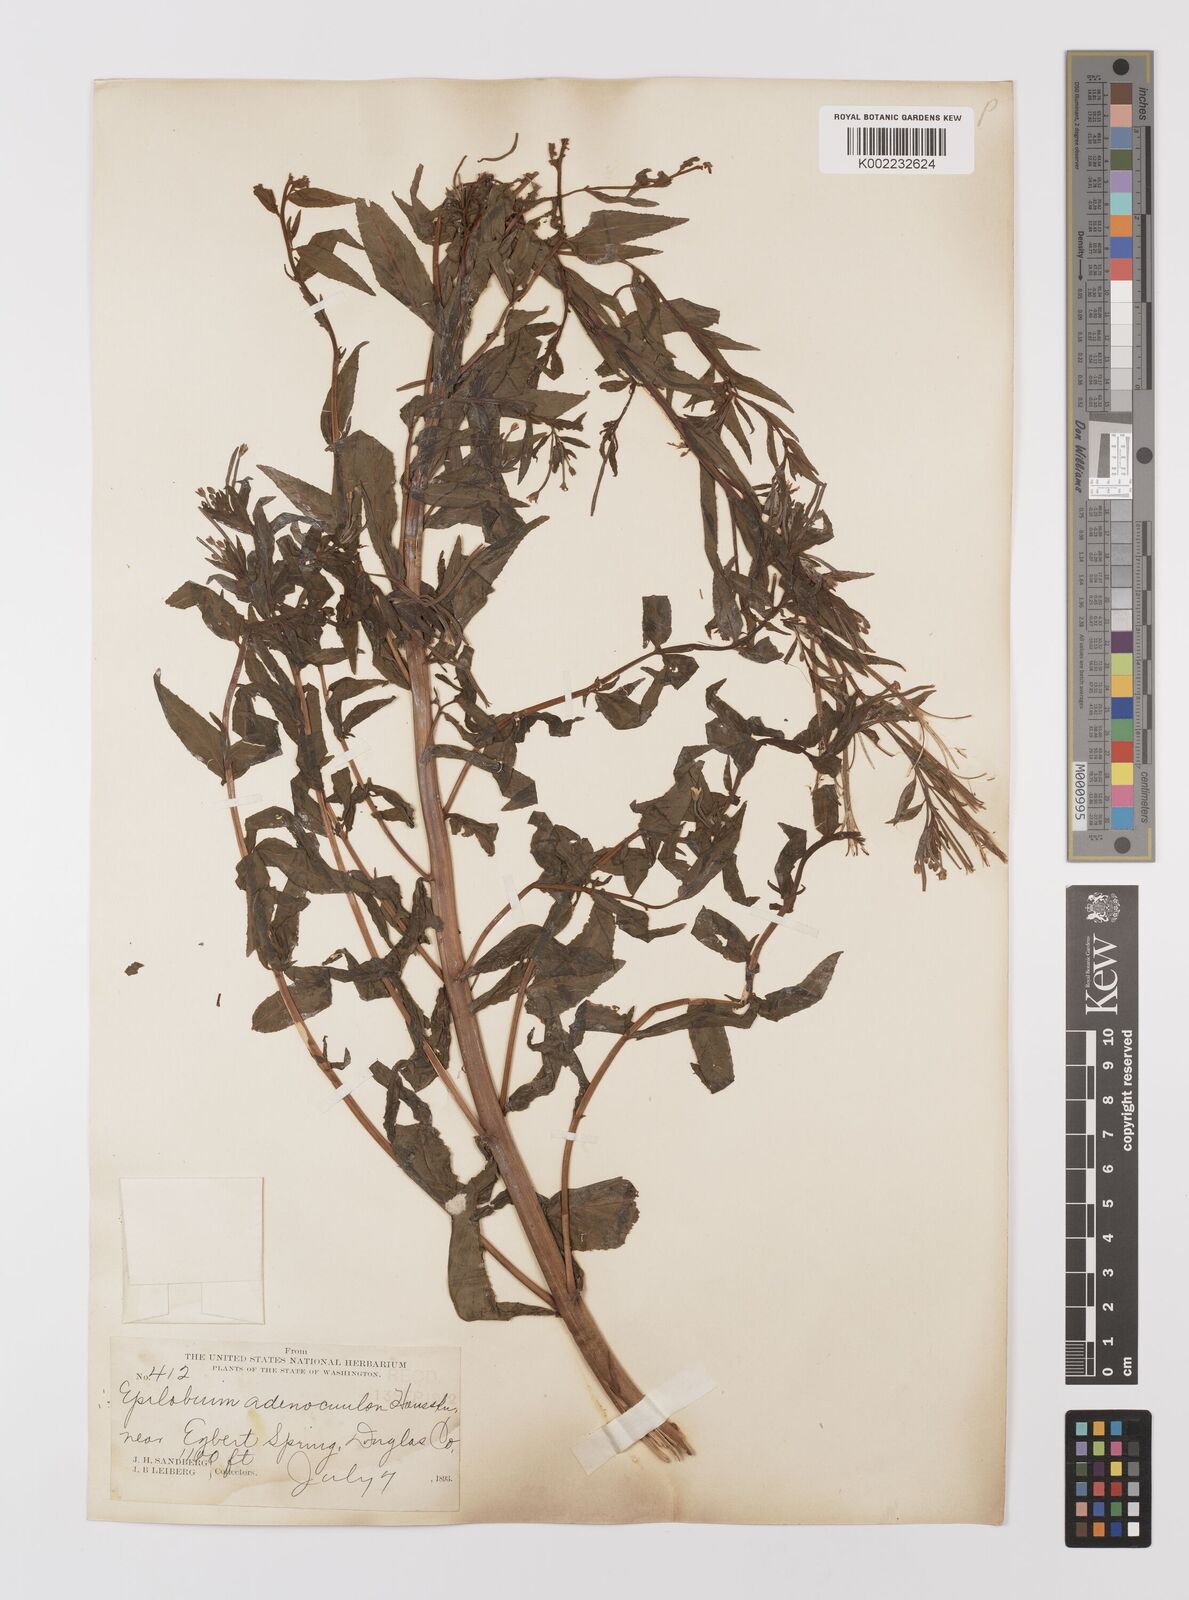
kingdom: Plantae
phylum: Tracheophyta
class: Magnoliopsida
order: Myrtales
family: Onagraceae
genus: Epilobium
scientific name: Epilobium ciliatum
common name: American willowherb
